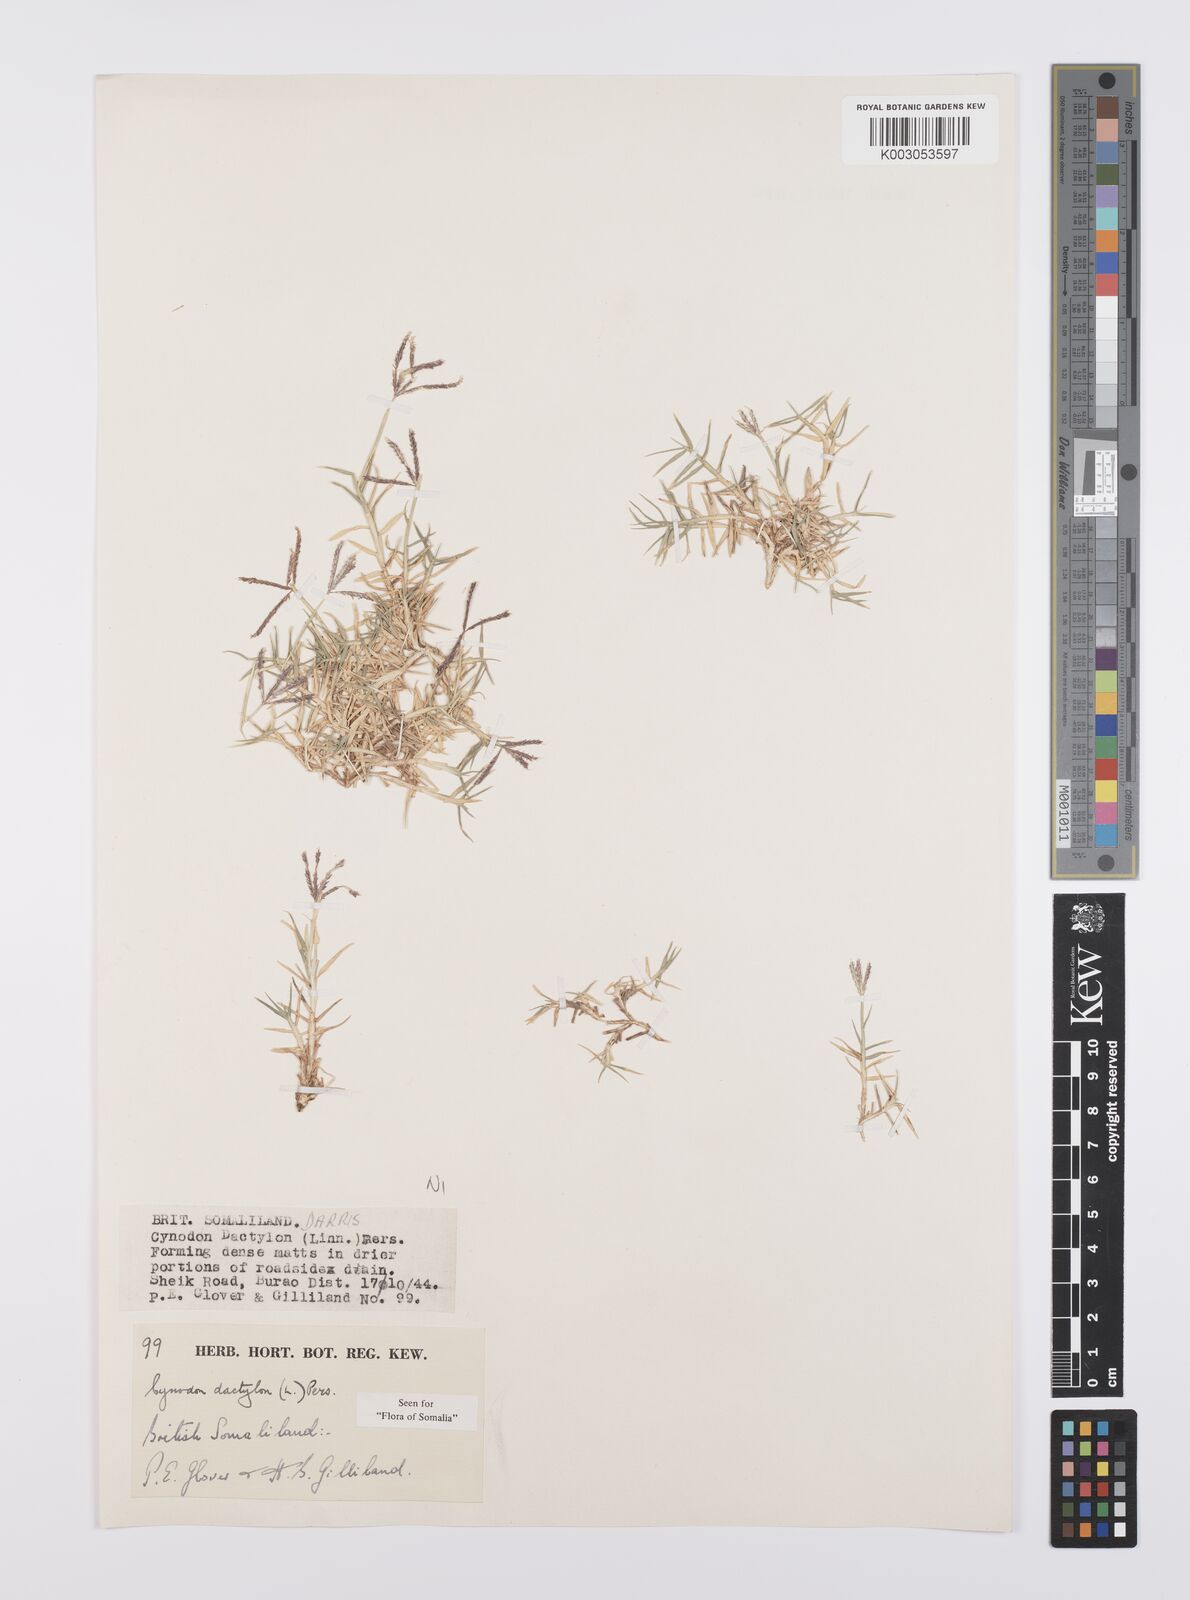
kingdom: Plantae
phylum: Tracheophyta
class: Liliopsida
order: Poales
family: Poaceae
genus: Cynodon
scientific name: Cynodon dactylon
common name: Bermuda grass
